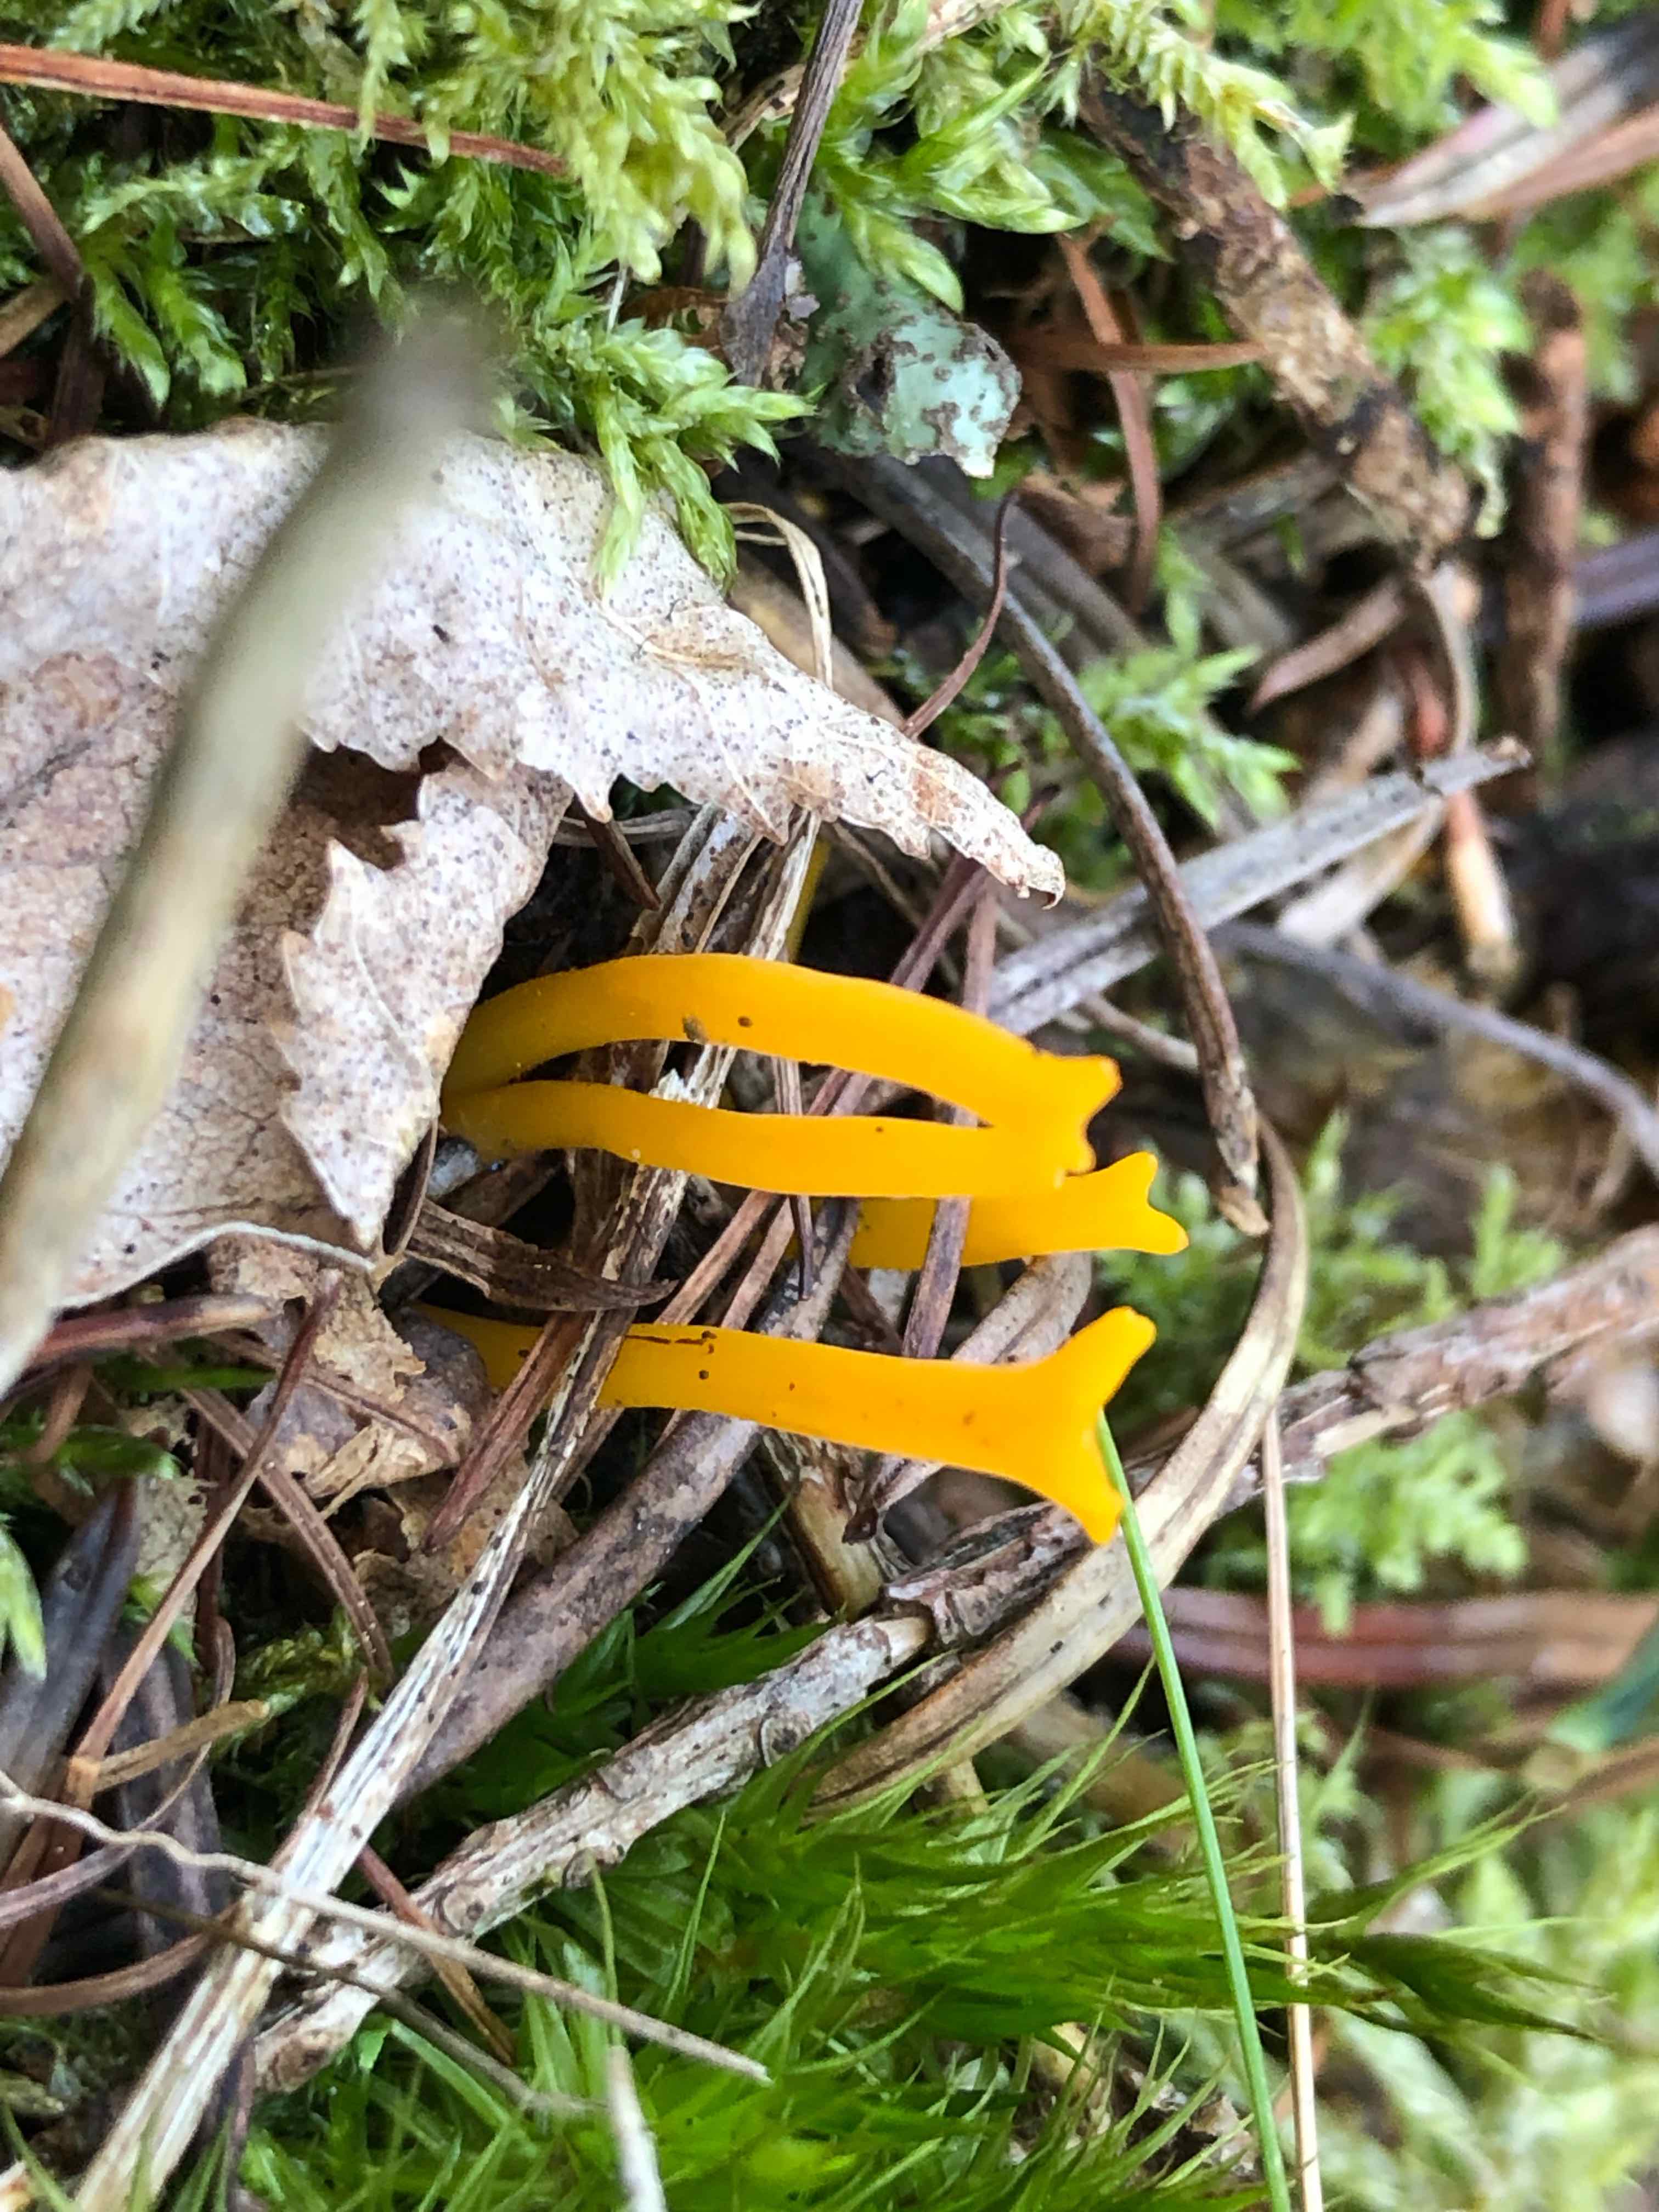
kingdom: Fungi
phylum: Basidiomycota
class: Dacrymycetes
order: Dacrymycetales
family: Dacrymycetaceae
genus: Calocera
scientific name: Calocera viscosa
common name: almindelig guldgaffel
